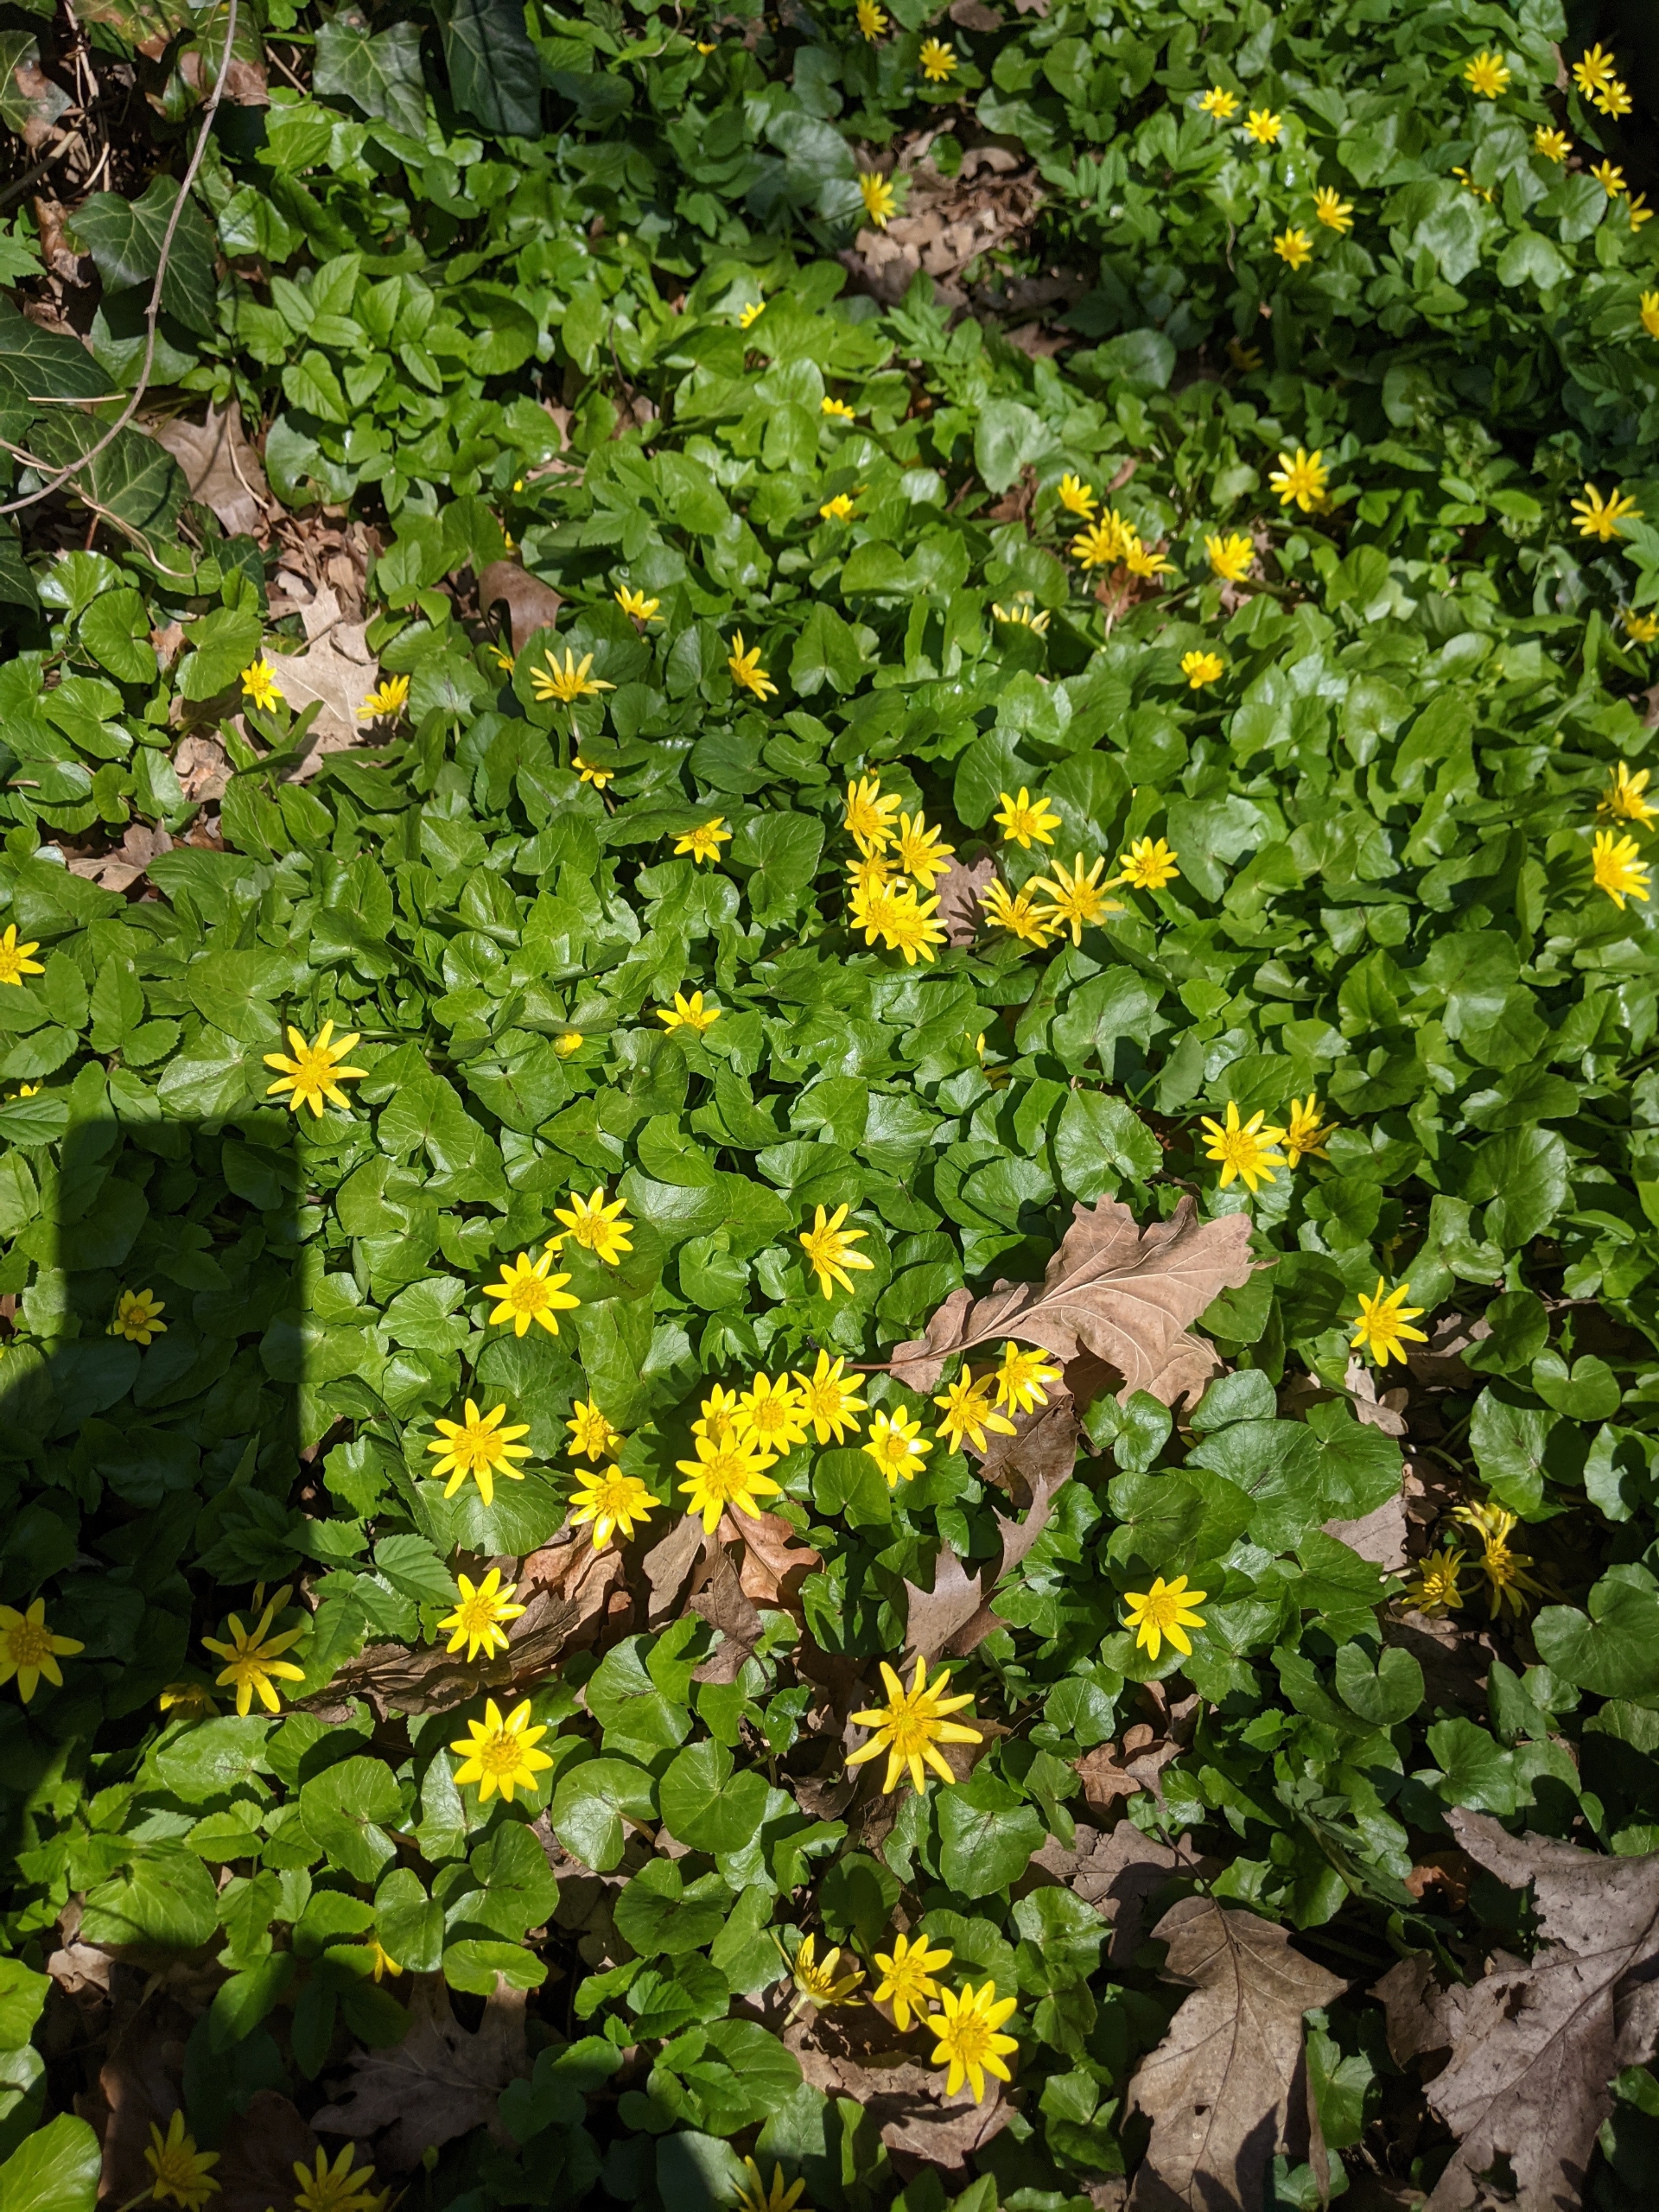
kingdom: Plantae
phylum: Tracheophyta
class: Magnoliopsida
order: Ranunculales
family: Ranunculaceae
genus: Ficaria
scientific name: Ficaria verna
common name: Vorterod
